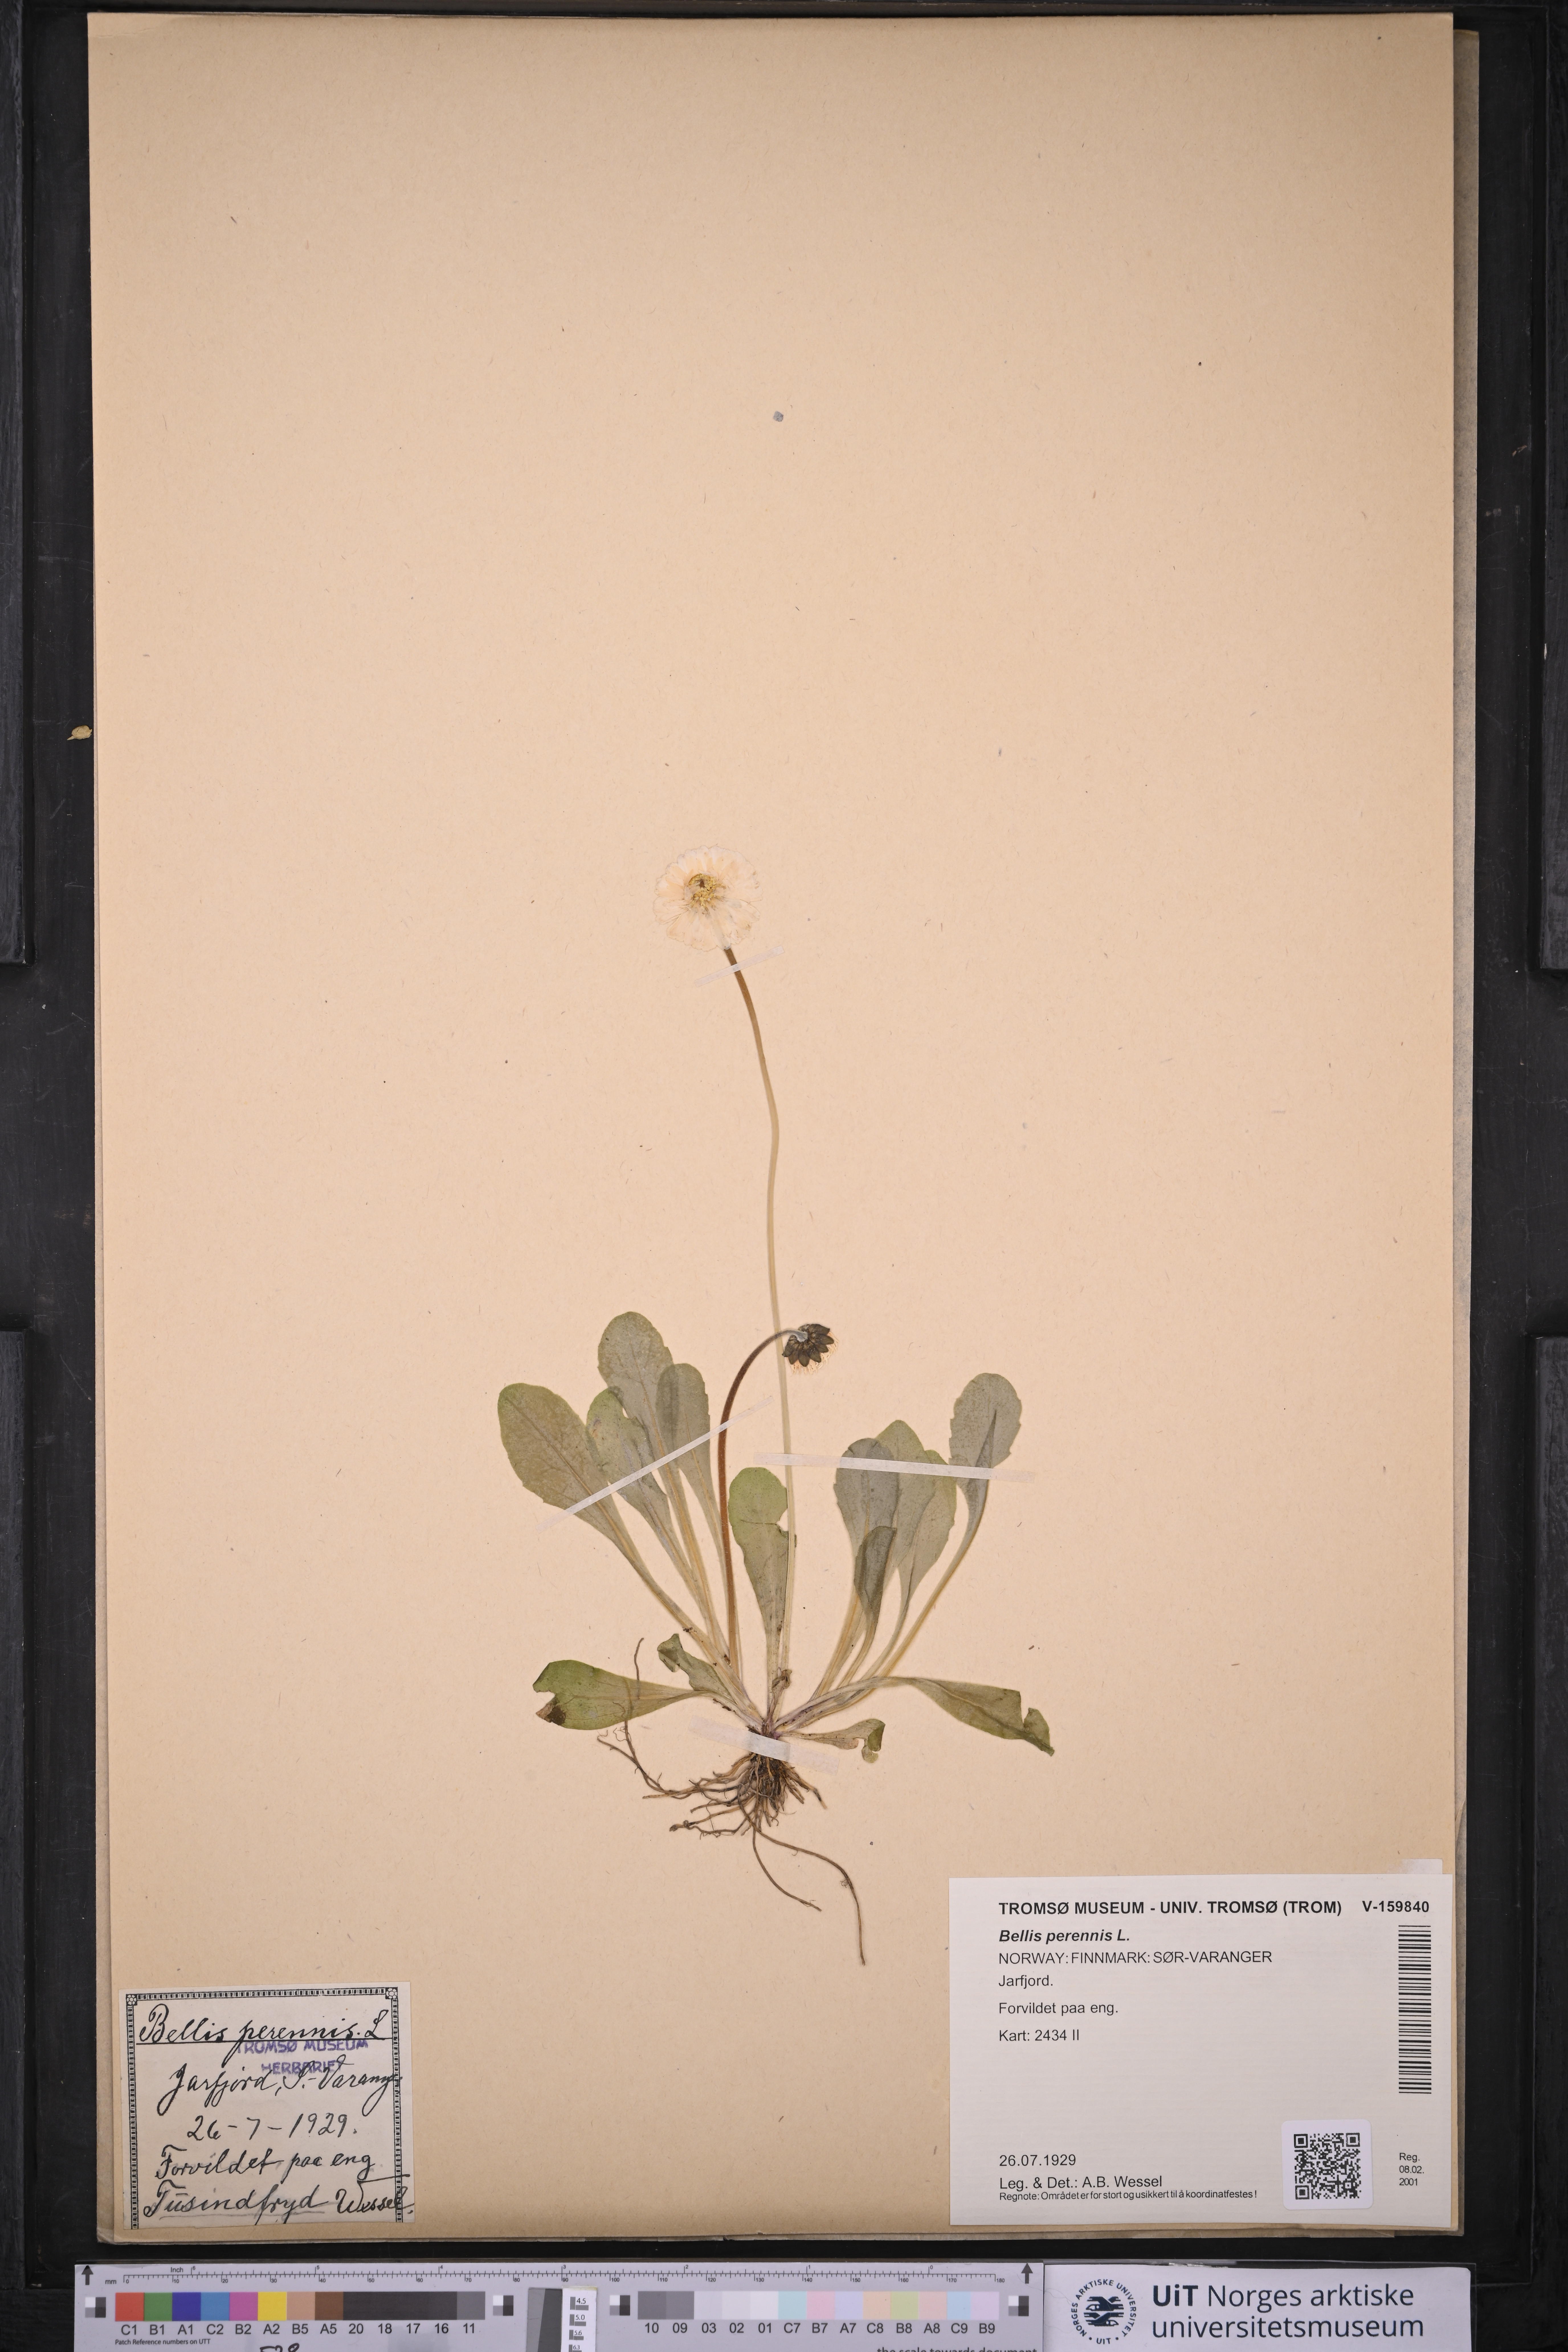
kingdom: Plantae
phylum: Tracheophyta
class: Magnoliopsida
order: Asterales
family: Asteraceae
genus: Bellis
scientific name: Bellis perennis
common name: Lawndaisy
